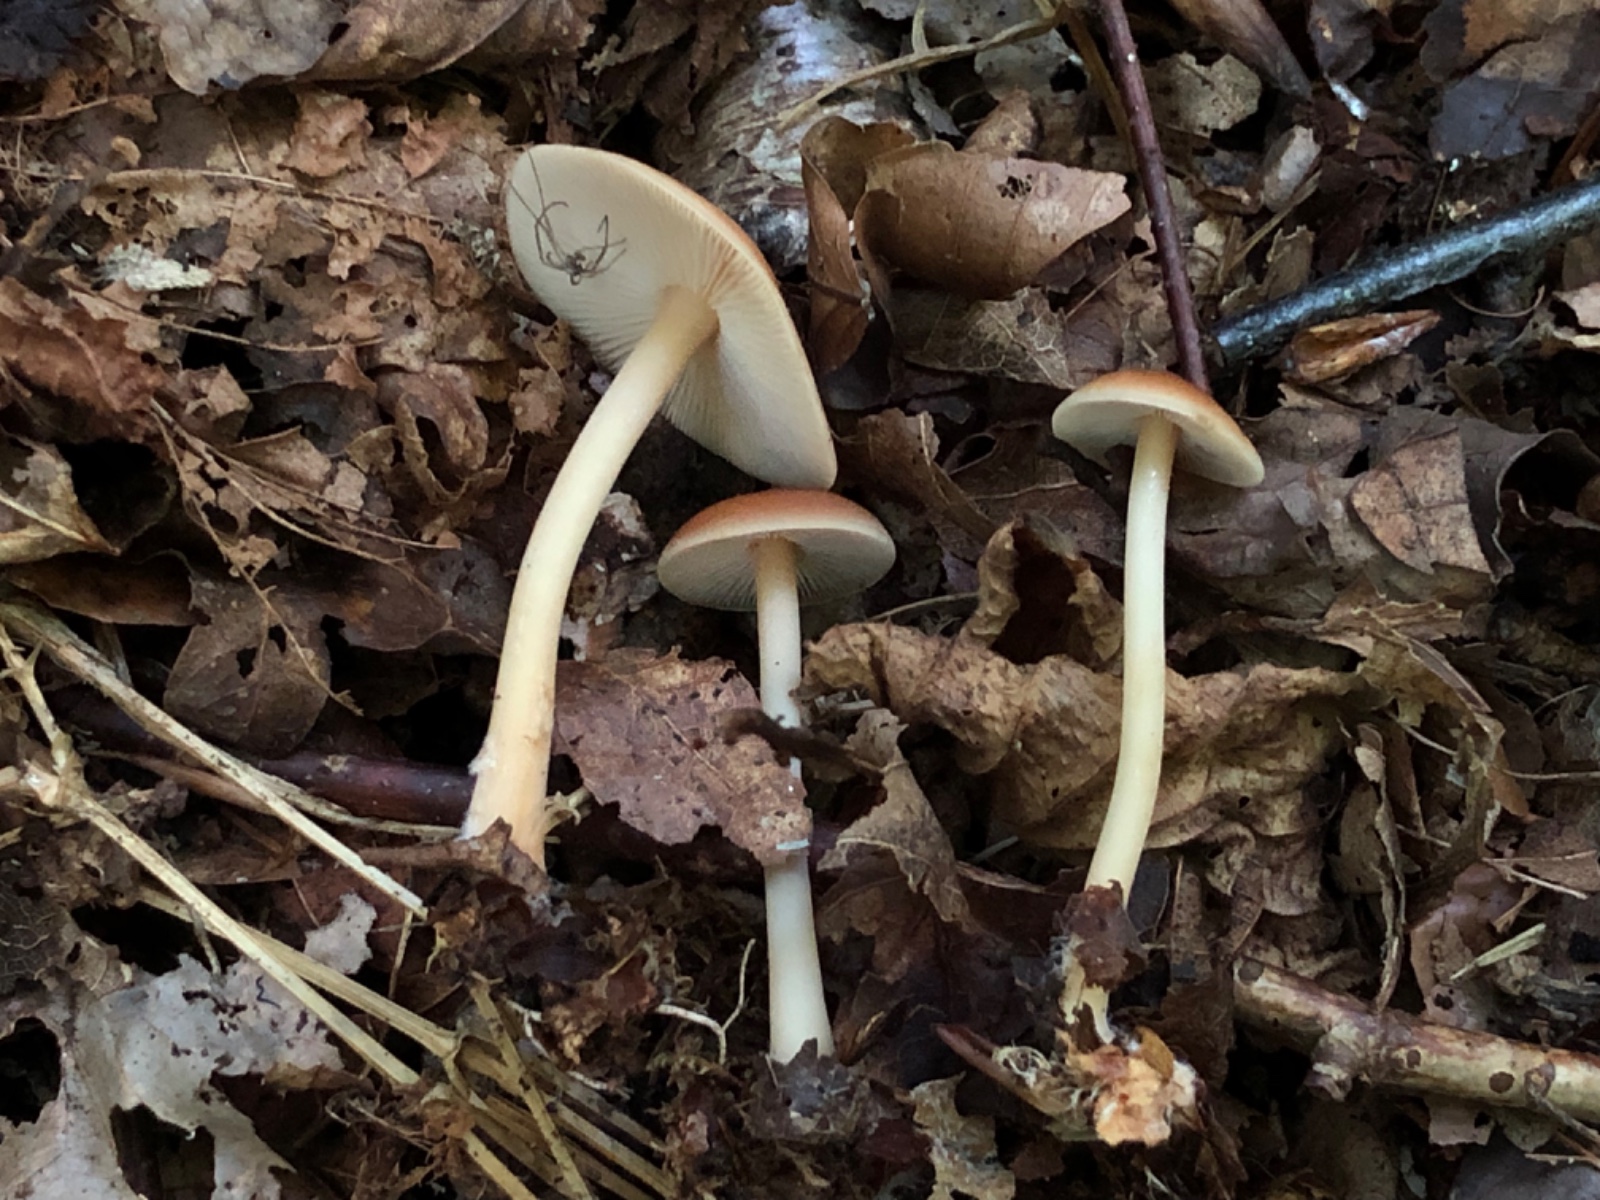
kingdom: Fungi
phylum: Basidiomycota
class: Agaricomycetes
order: Agaricales
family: Omphalotaceae
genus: Gymnopus
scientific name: Gymnopus dryophilus
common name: løv-fladhat
